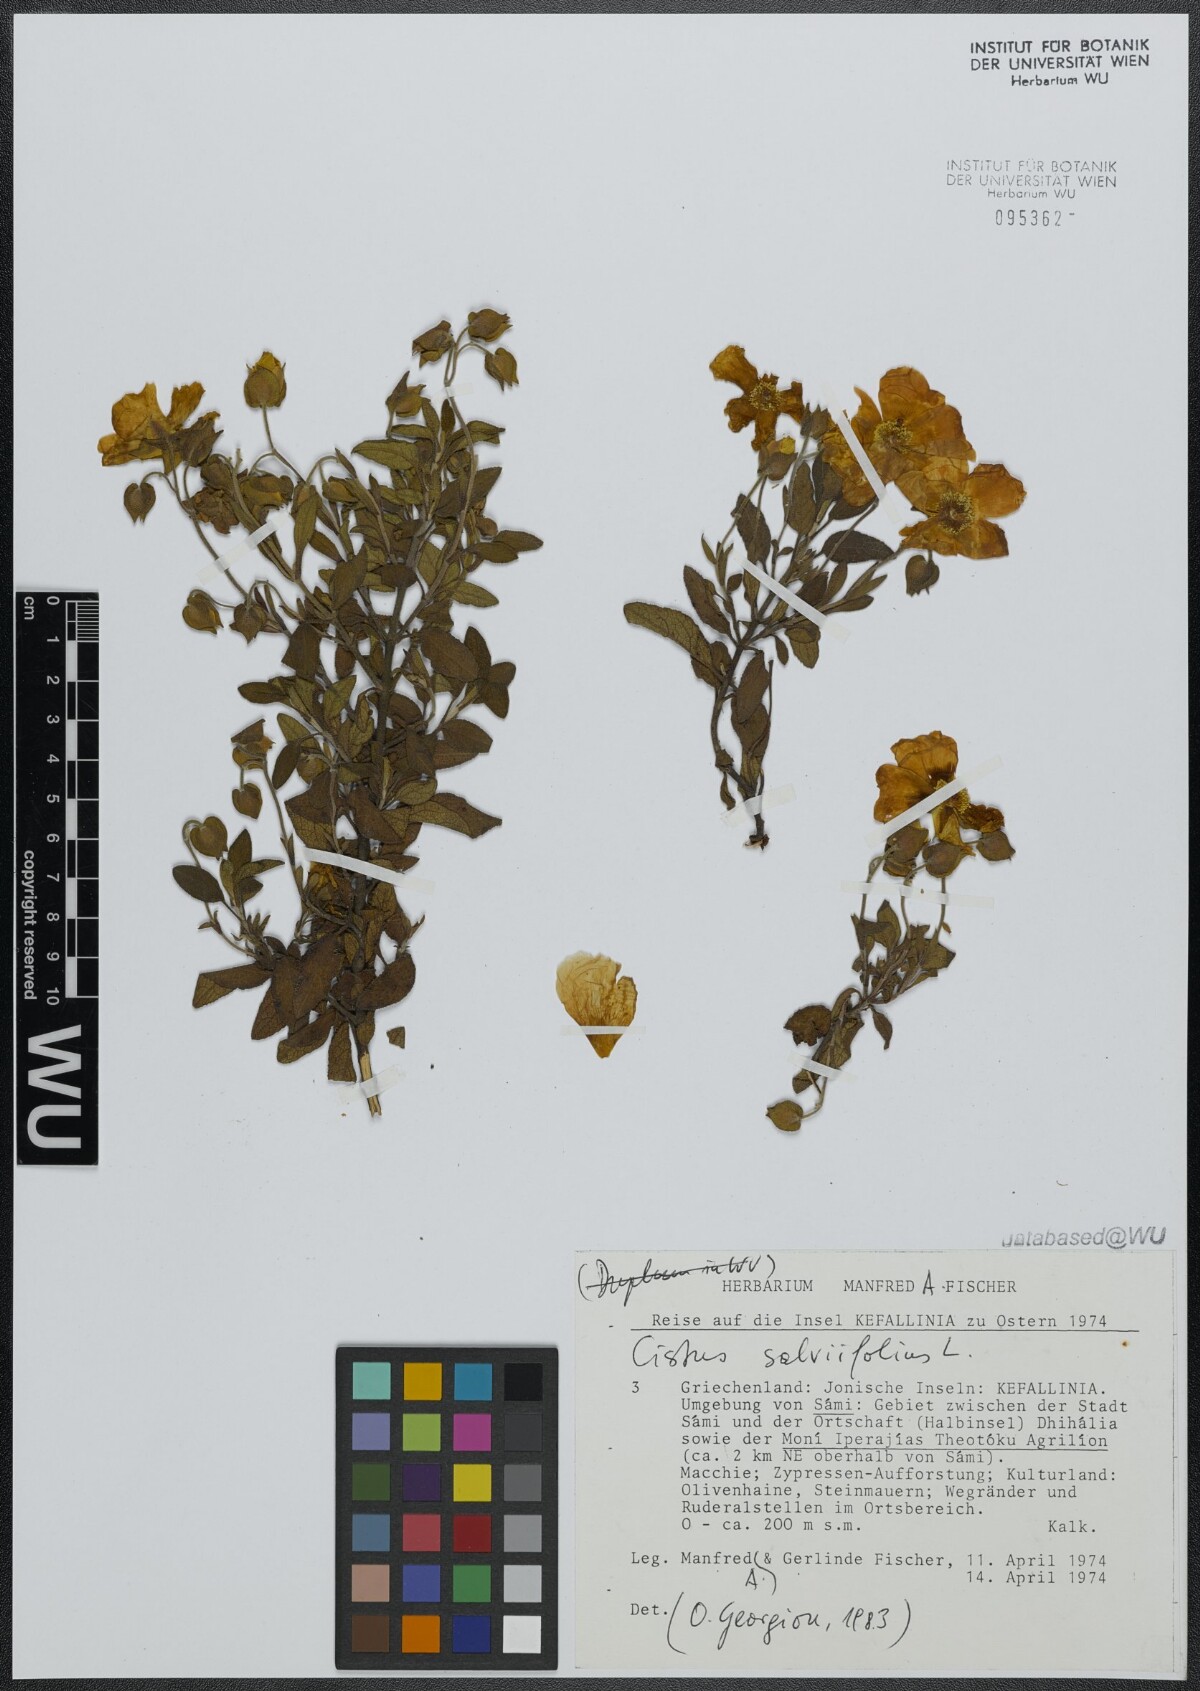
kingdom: Plantae
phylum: Tracheophyta
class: Magnoliopsida
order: Malvales
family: Cistaceae
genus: Cistus
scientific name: Cistus salviifolius
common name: Salvia cistus
